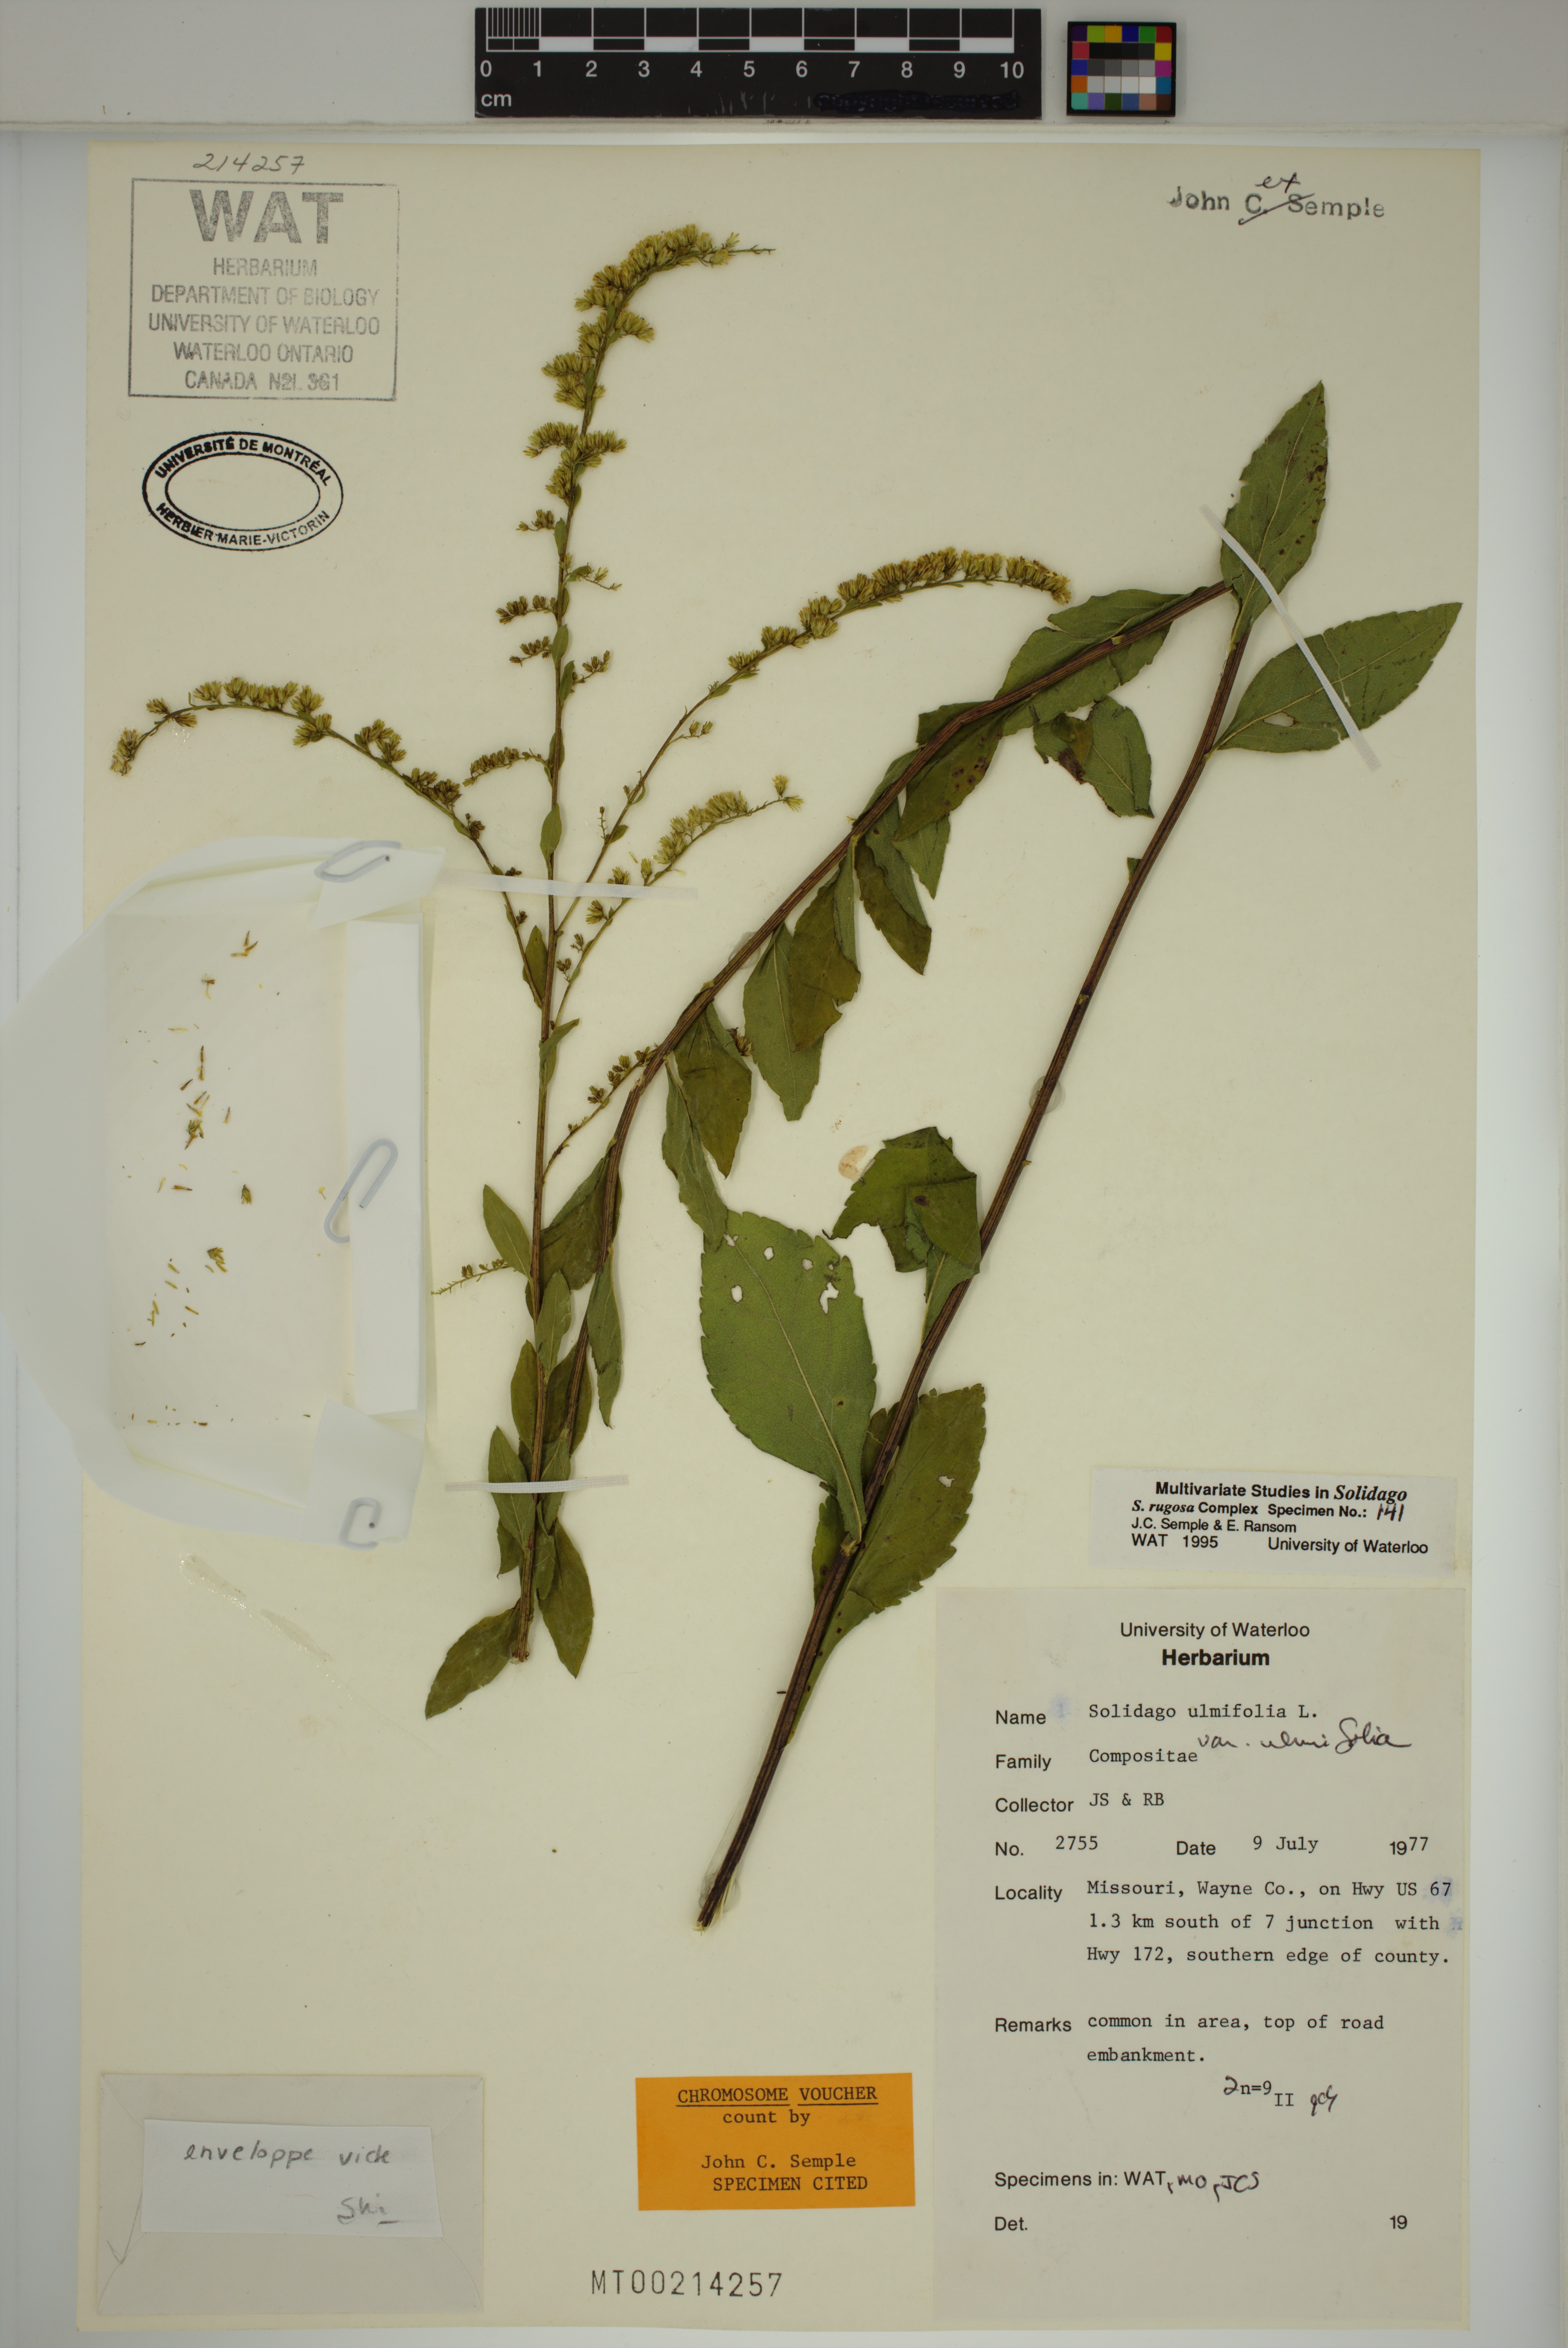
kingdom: Plantae
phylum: Tracheophyta
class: Magnoliopsida
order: Asterales
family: Asteraceae
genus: Solidago
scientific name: Solidago ulmifolia
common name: Elm-leaf goldenrod
